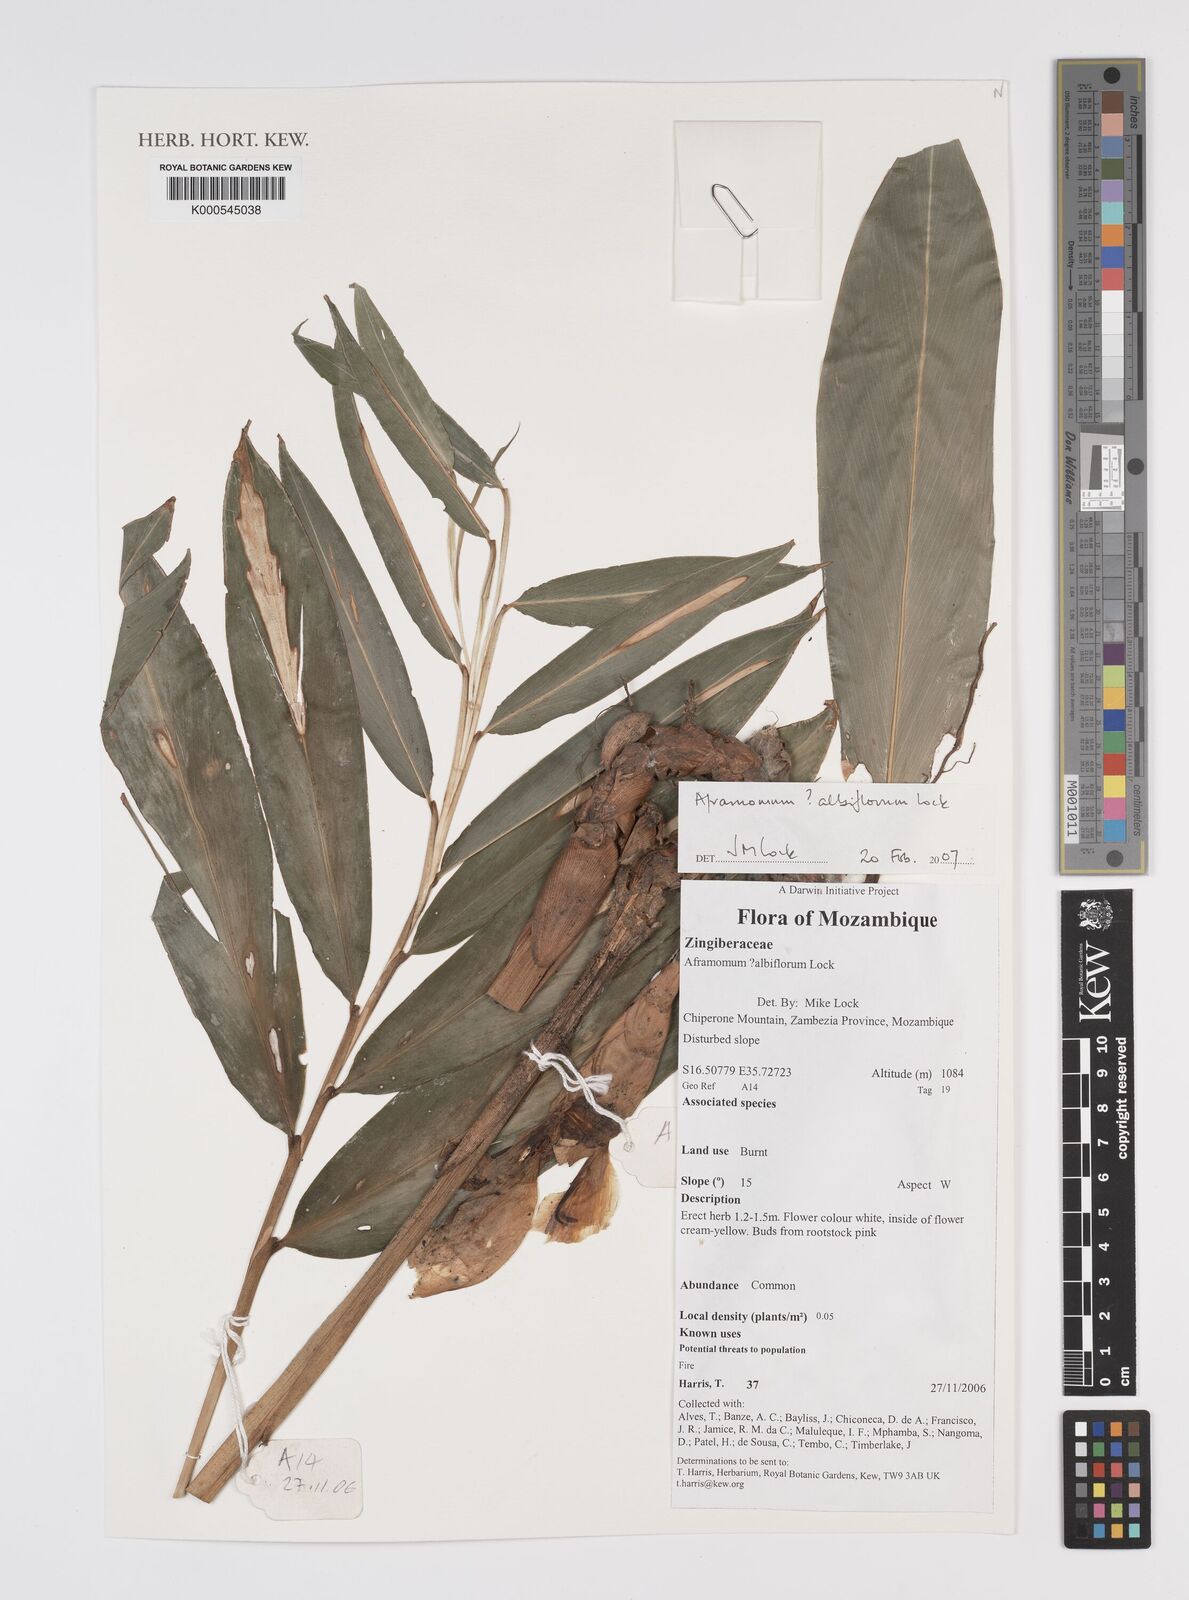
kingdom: Plantae
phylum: Tracheophyta
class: Liliopsida
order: Zingiberales
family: Zingiberaceae
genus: Aframomum
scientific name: Aframomum albiflorum
